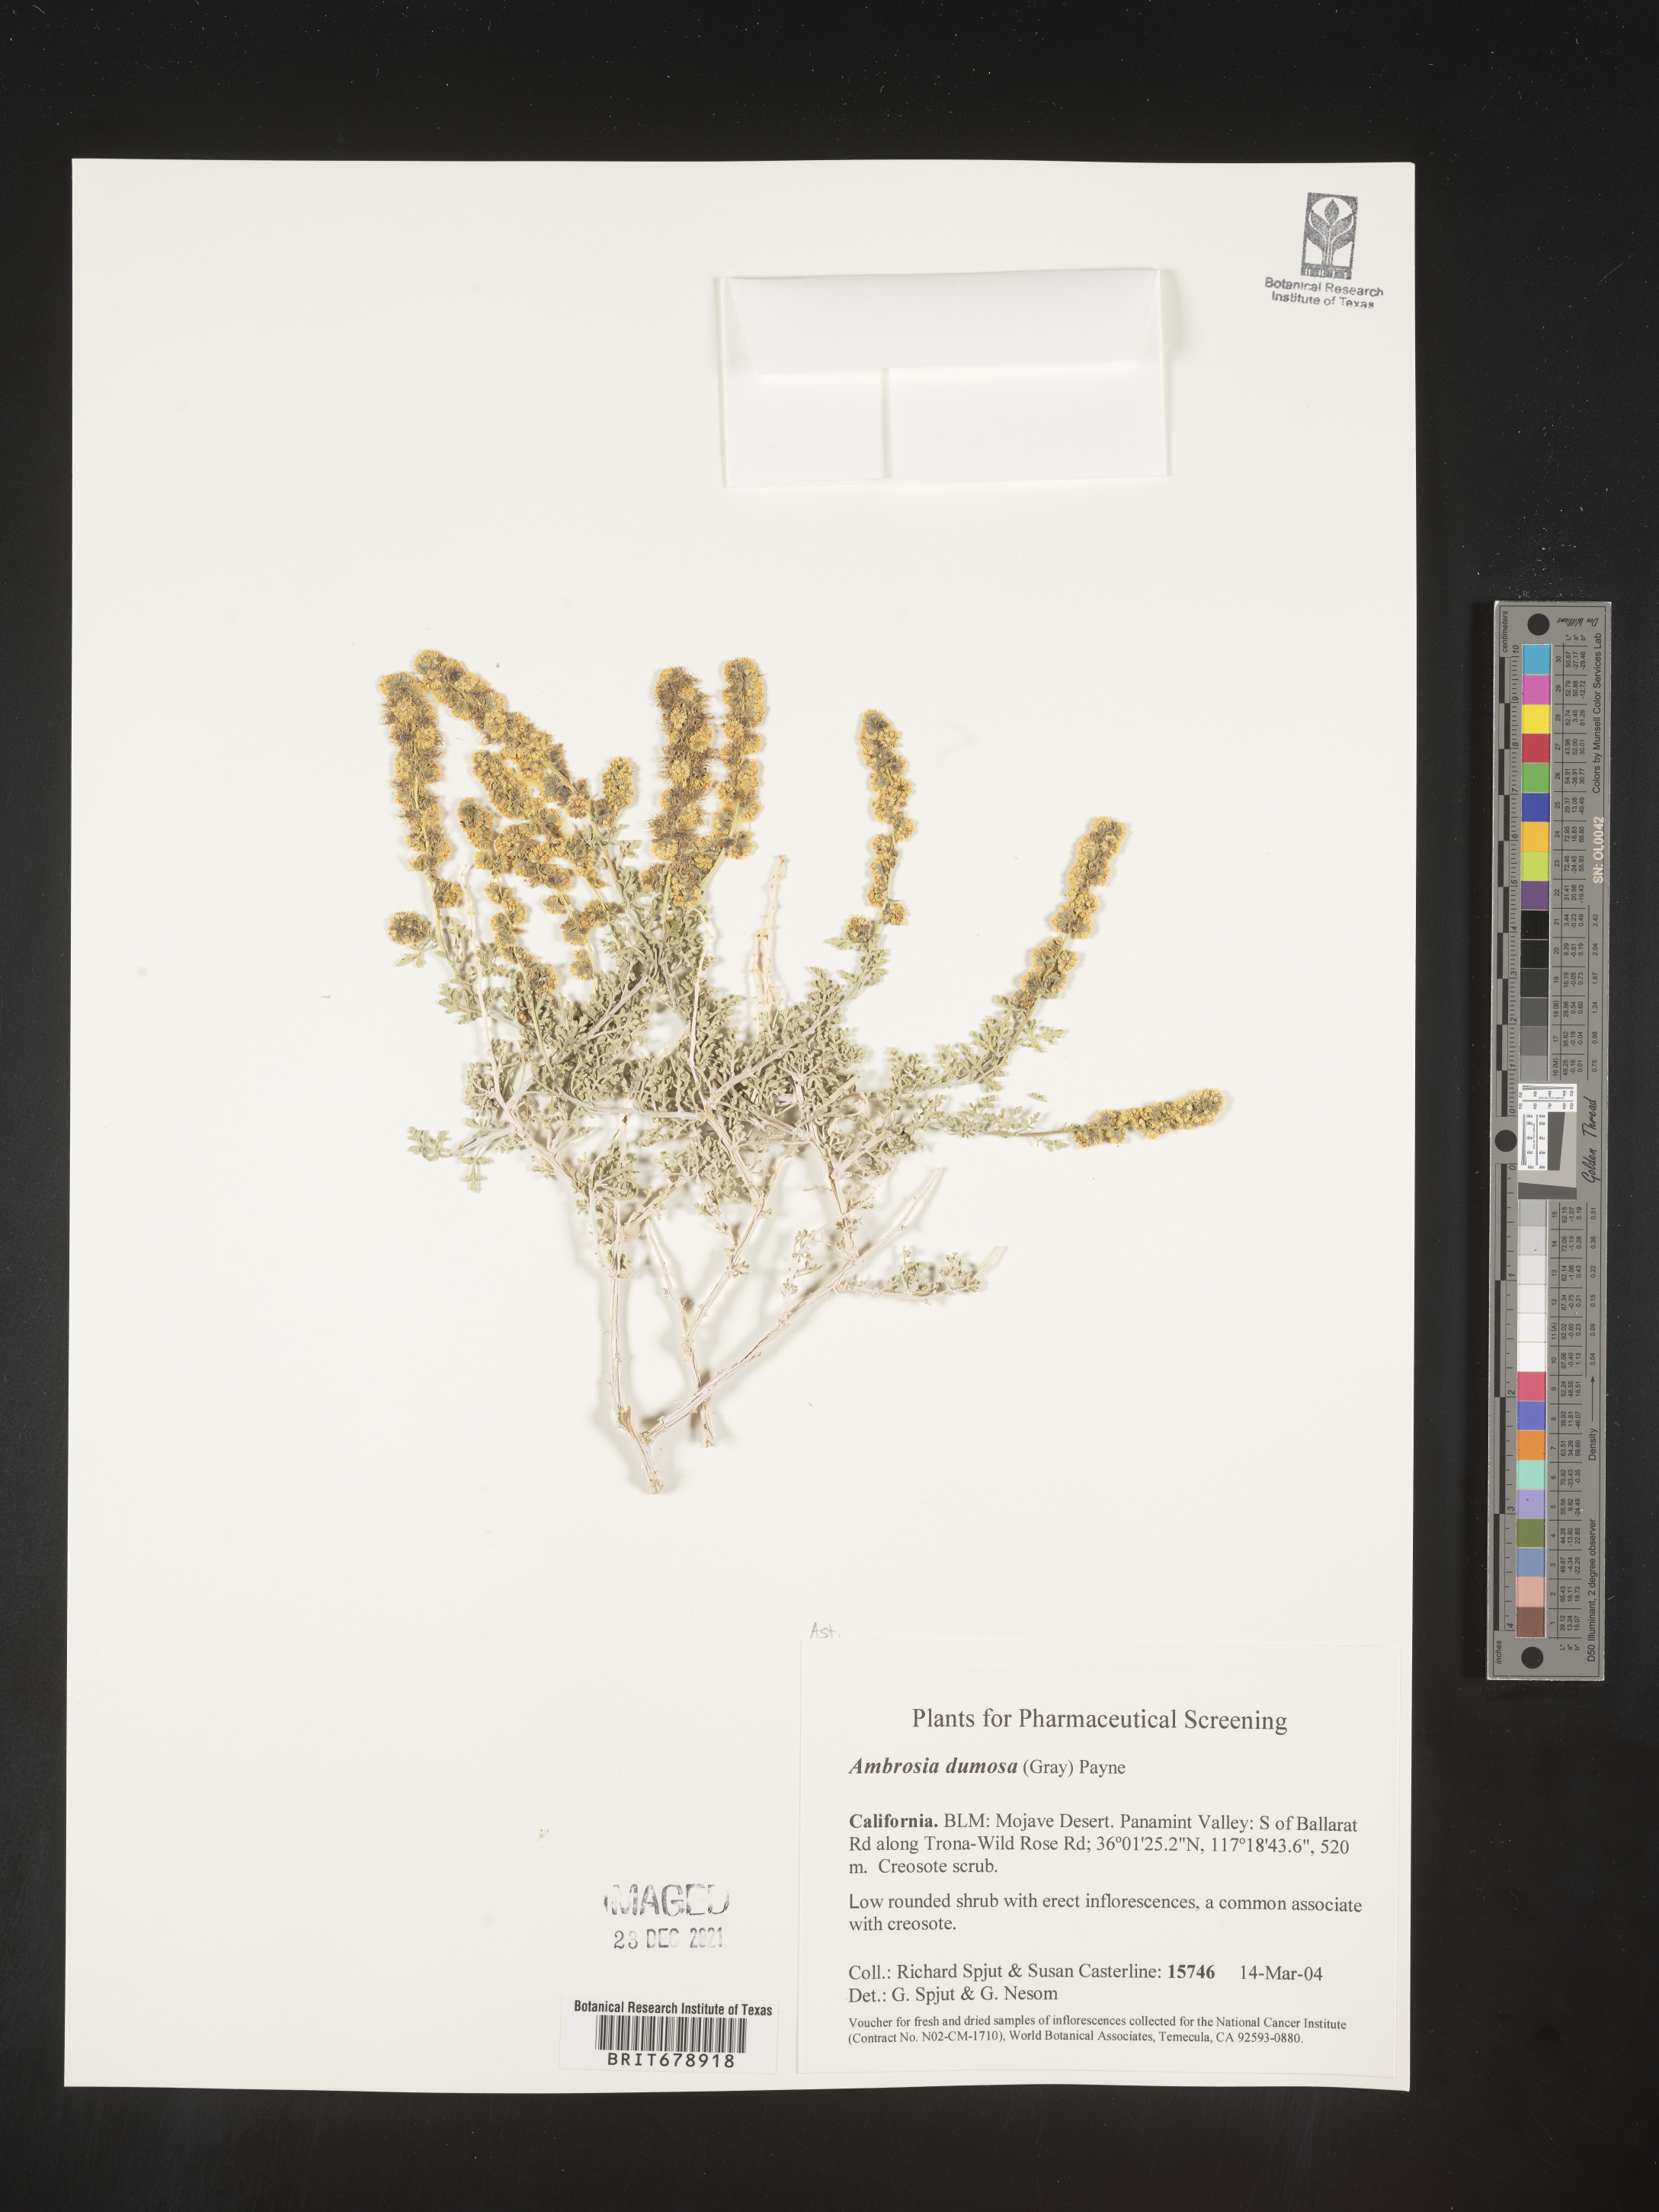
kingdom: Plantae
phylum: Tracheophyta
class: Magnoliopsida
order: Asterales
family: Asteraceae
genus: Ambrosia
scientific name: Ambrosia dumosa
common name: Bur-sage
